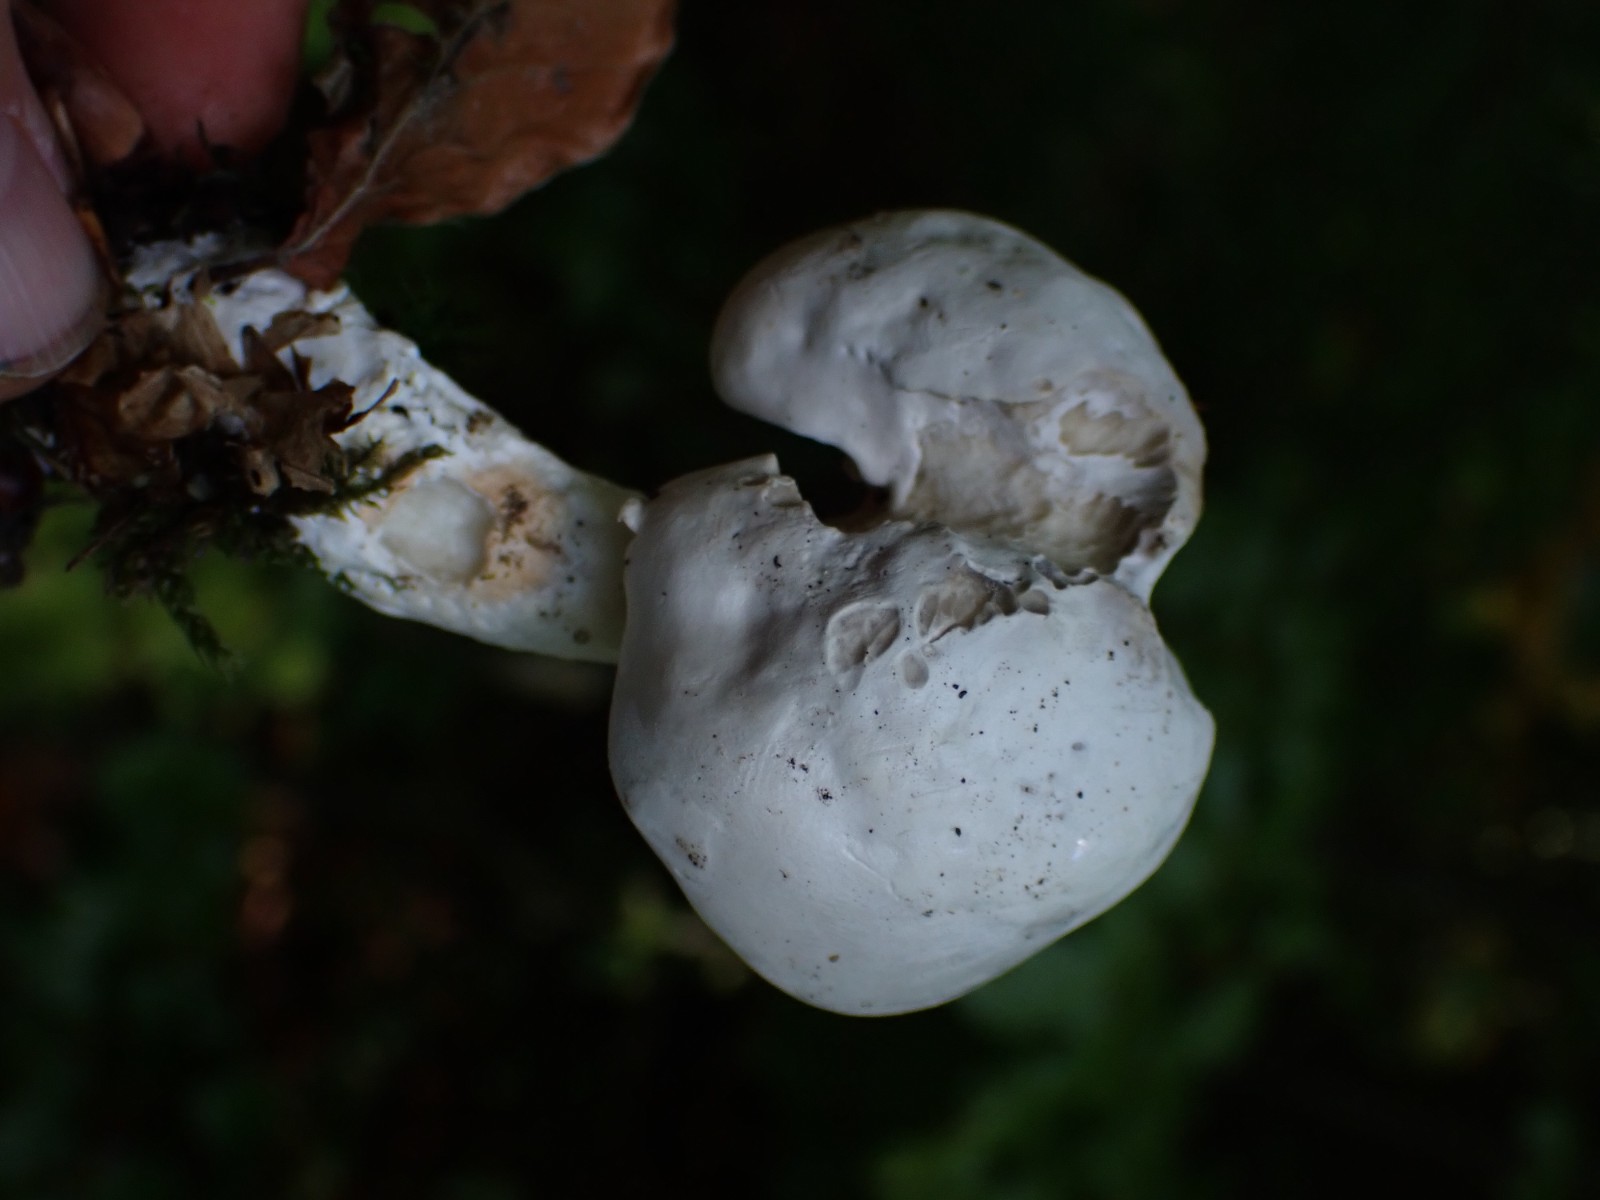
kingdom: Fungi
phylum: Basidiomycota
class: Agaricomycetes
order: Agaricales
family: Entolomataceae
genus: Clitopilus
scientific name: Clitopilus prunulus
